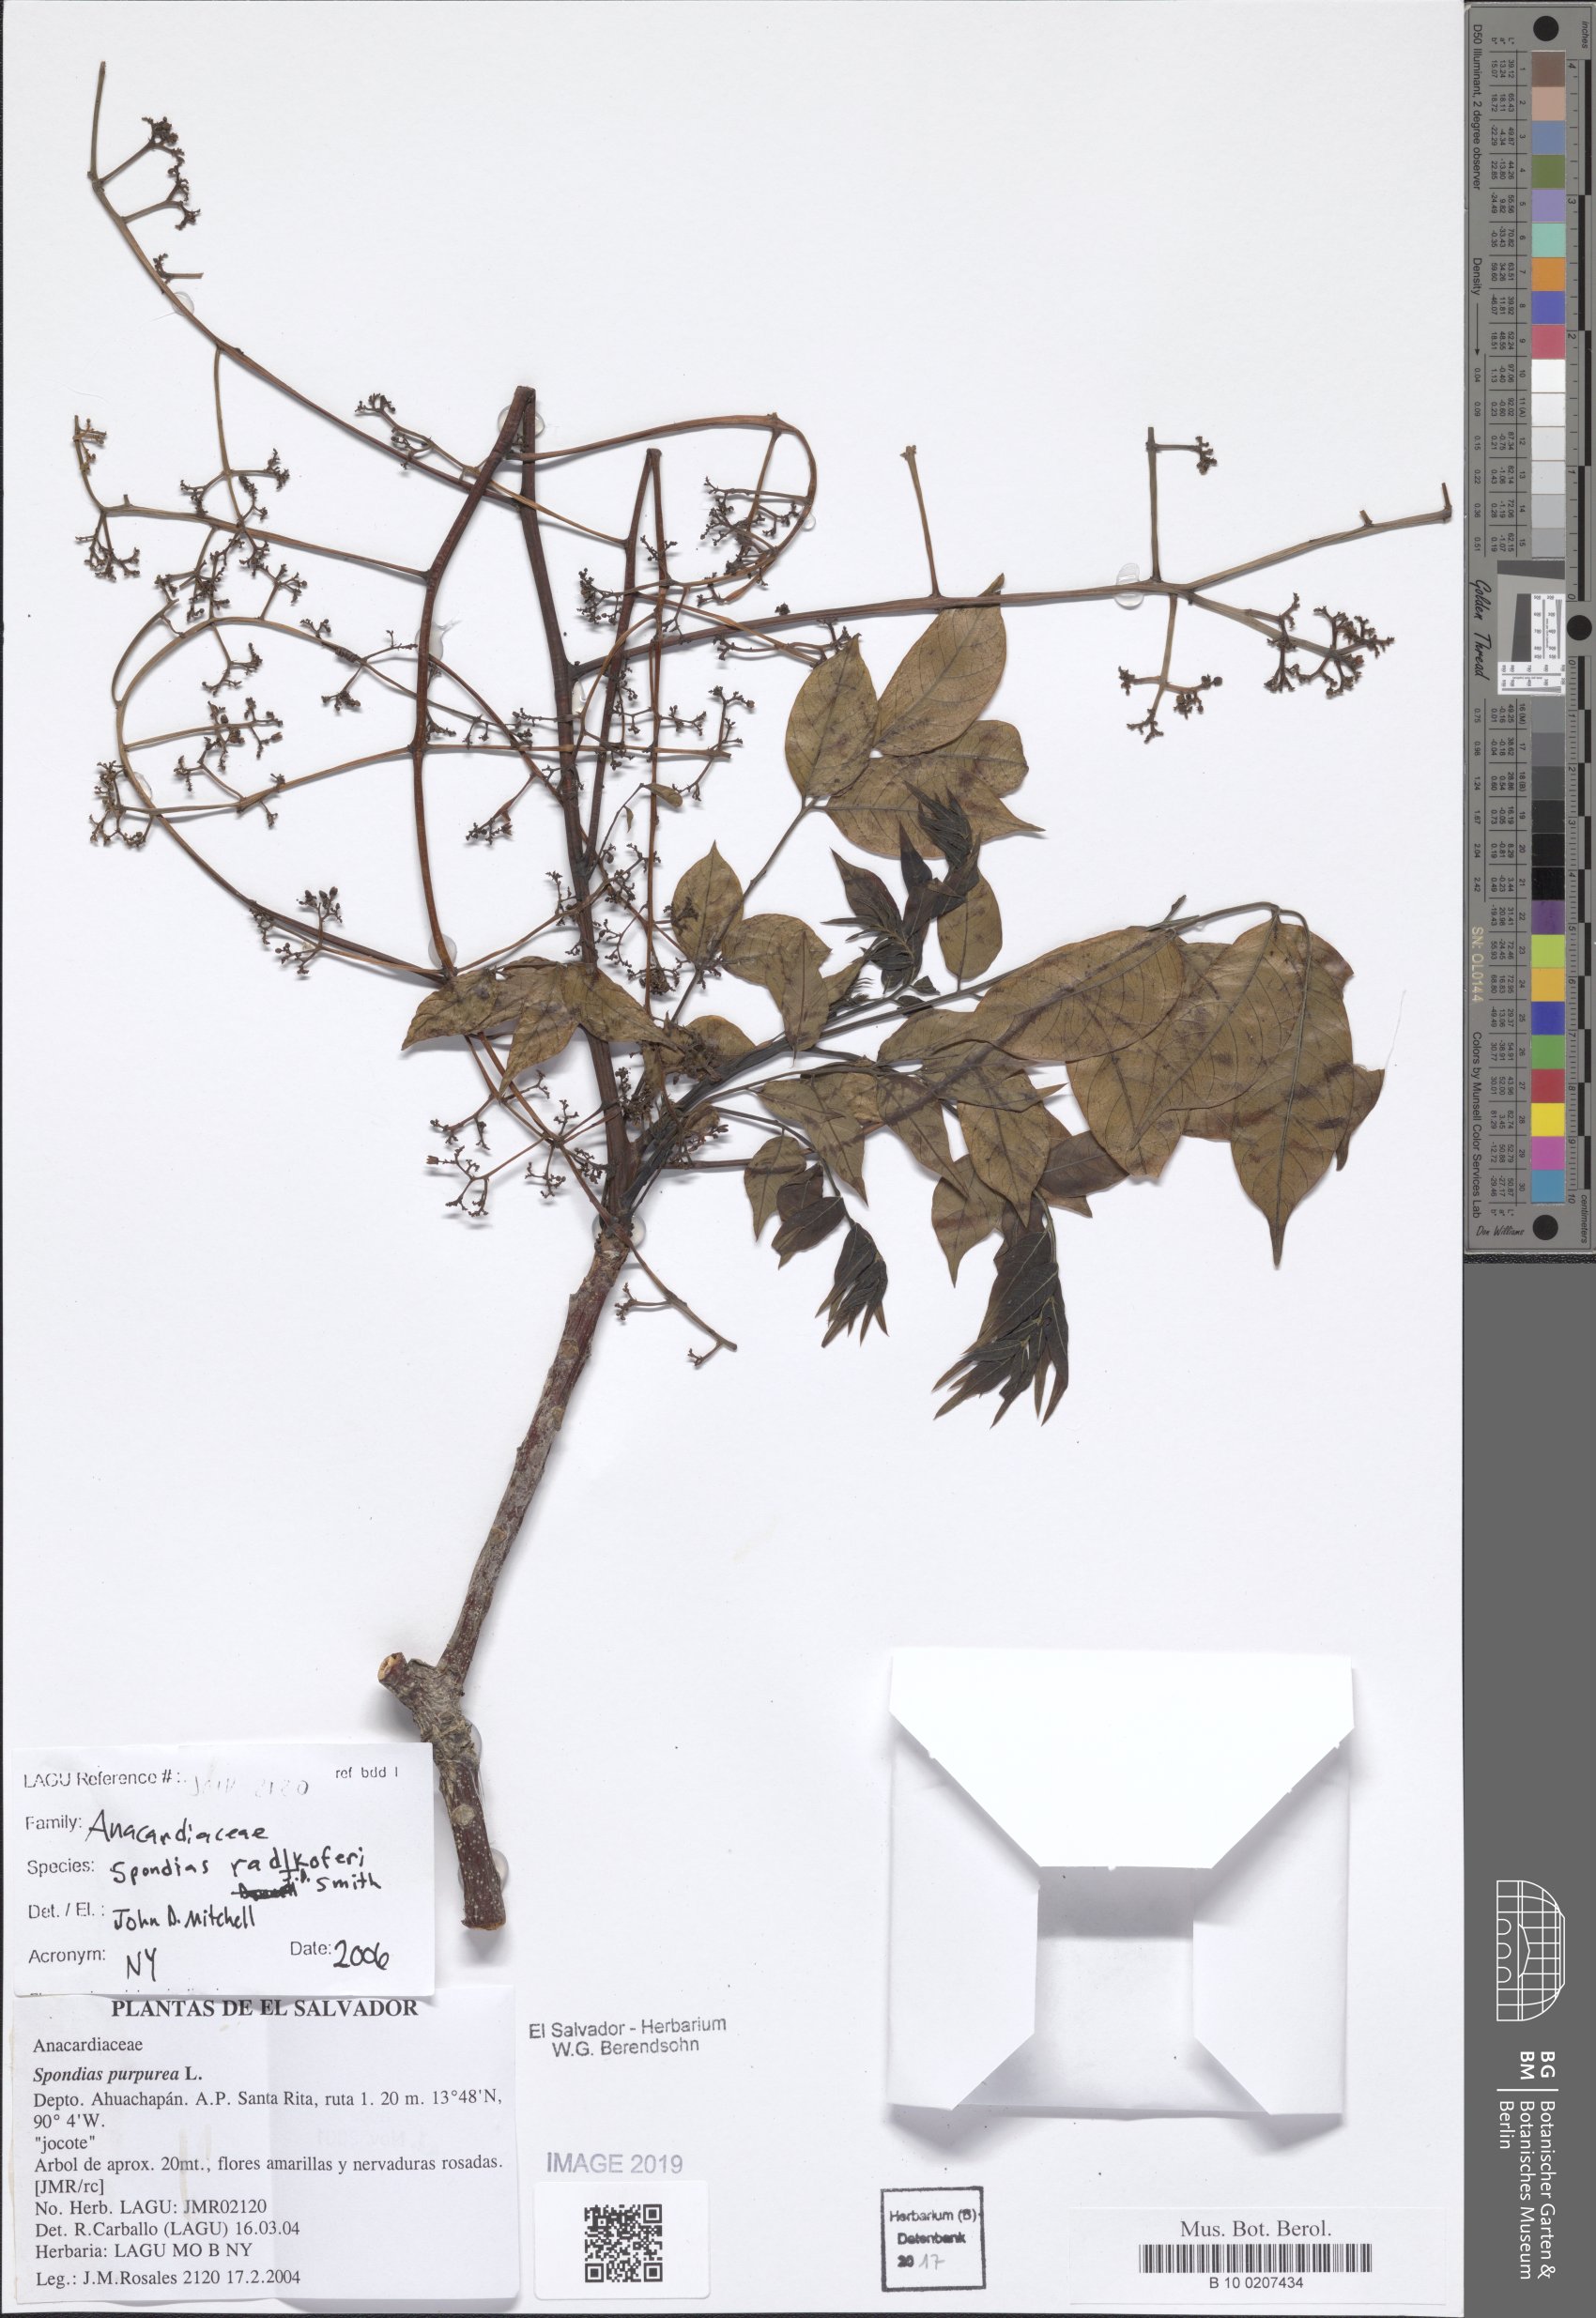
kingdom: Plantae
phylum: Tracheophyta
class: Magnoliopsida
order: Sapindales
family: Anacardiaceae
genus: Spondias
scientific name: Spondias radlkoferi
